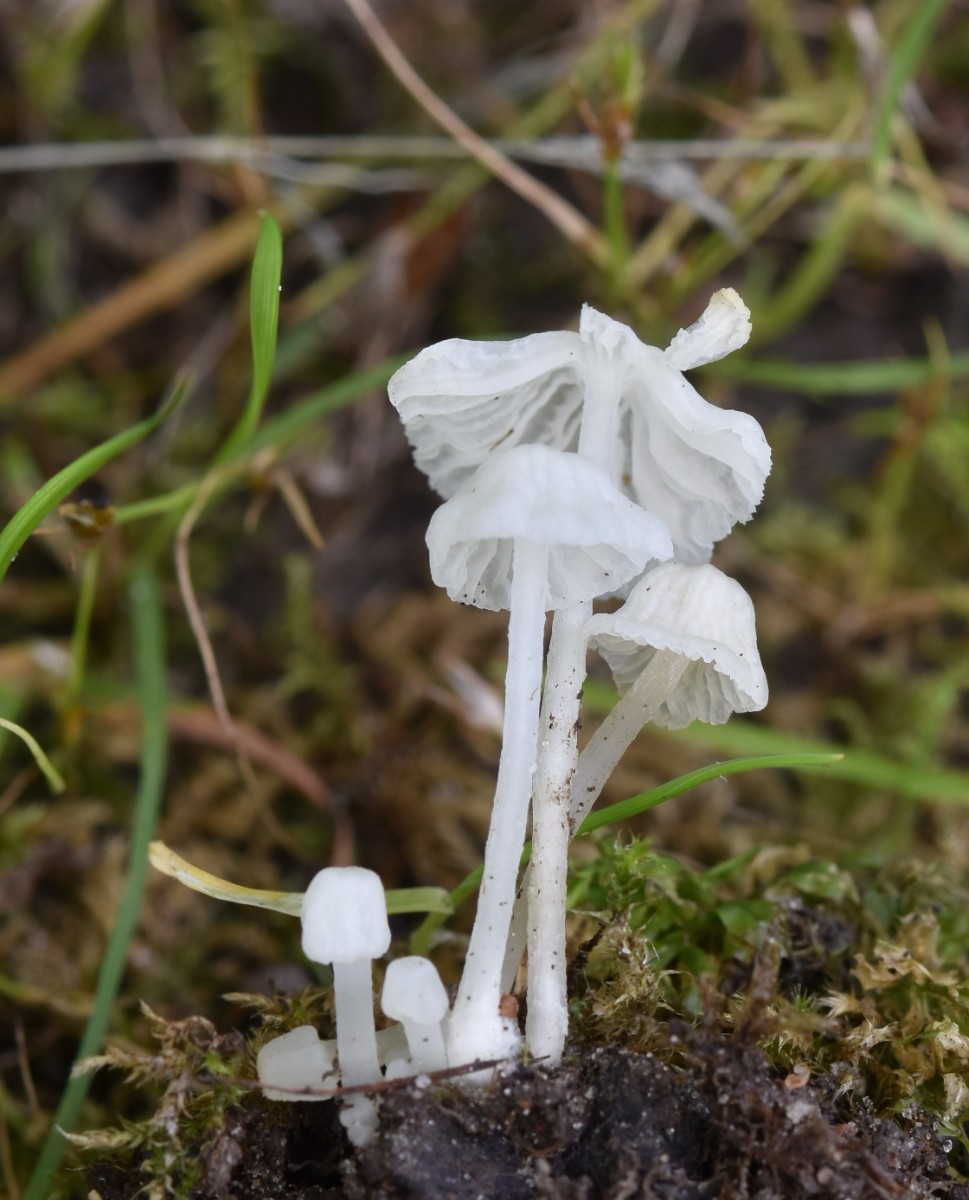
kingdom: Fungi
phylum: Basidiomycota
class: Agaricomycetes
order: Agaricales
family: Tricholomataceae
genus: Delicatula
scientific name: Delicatula integrella
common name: slørhuesvamp
